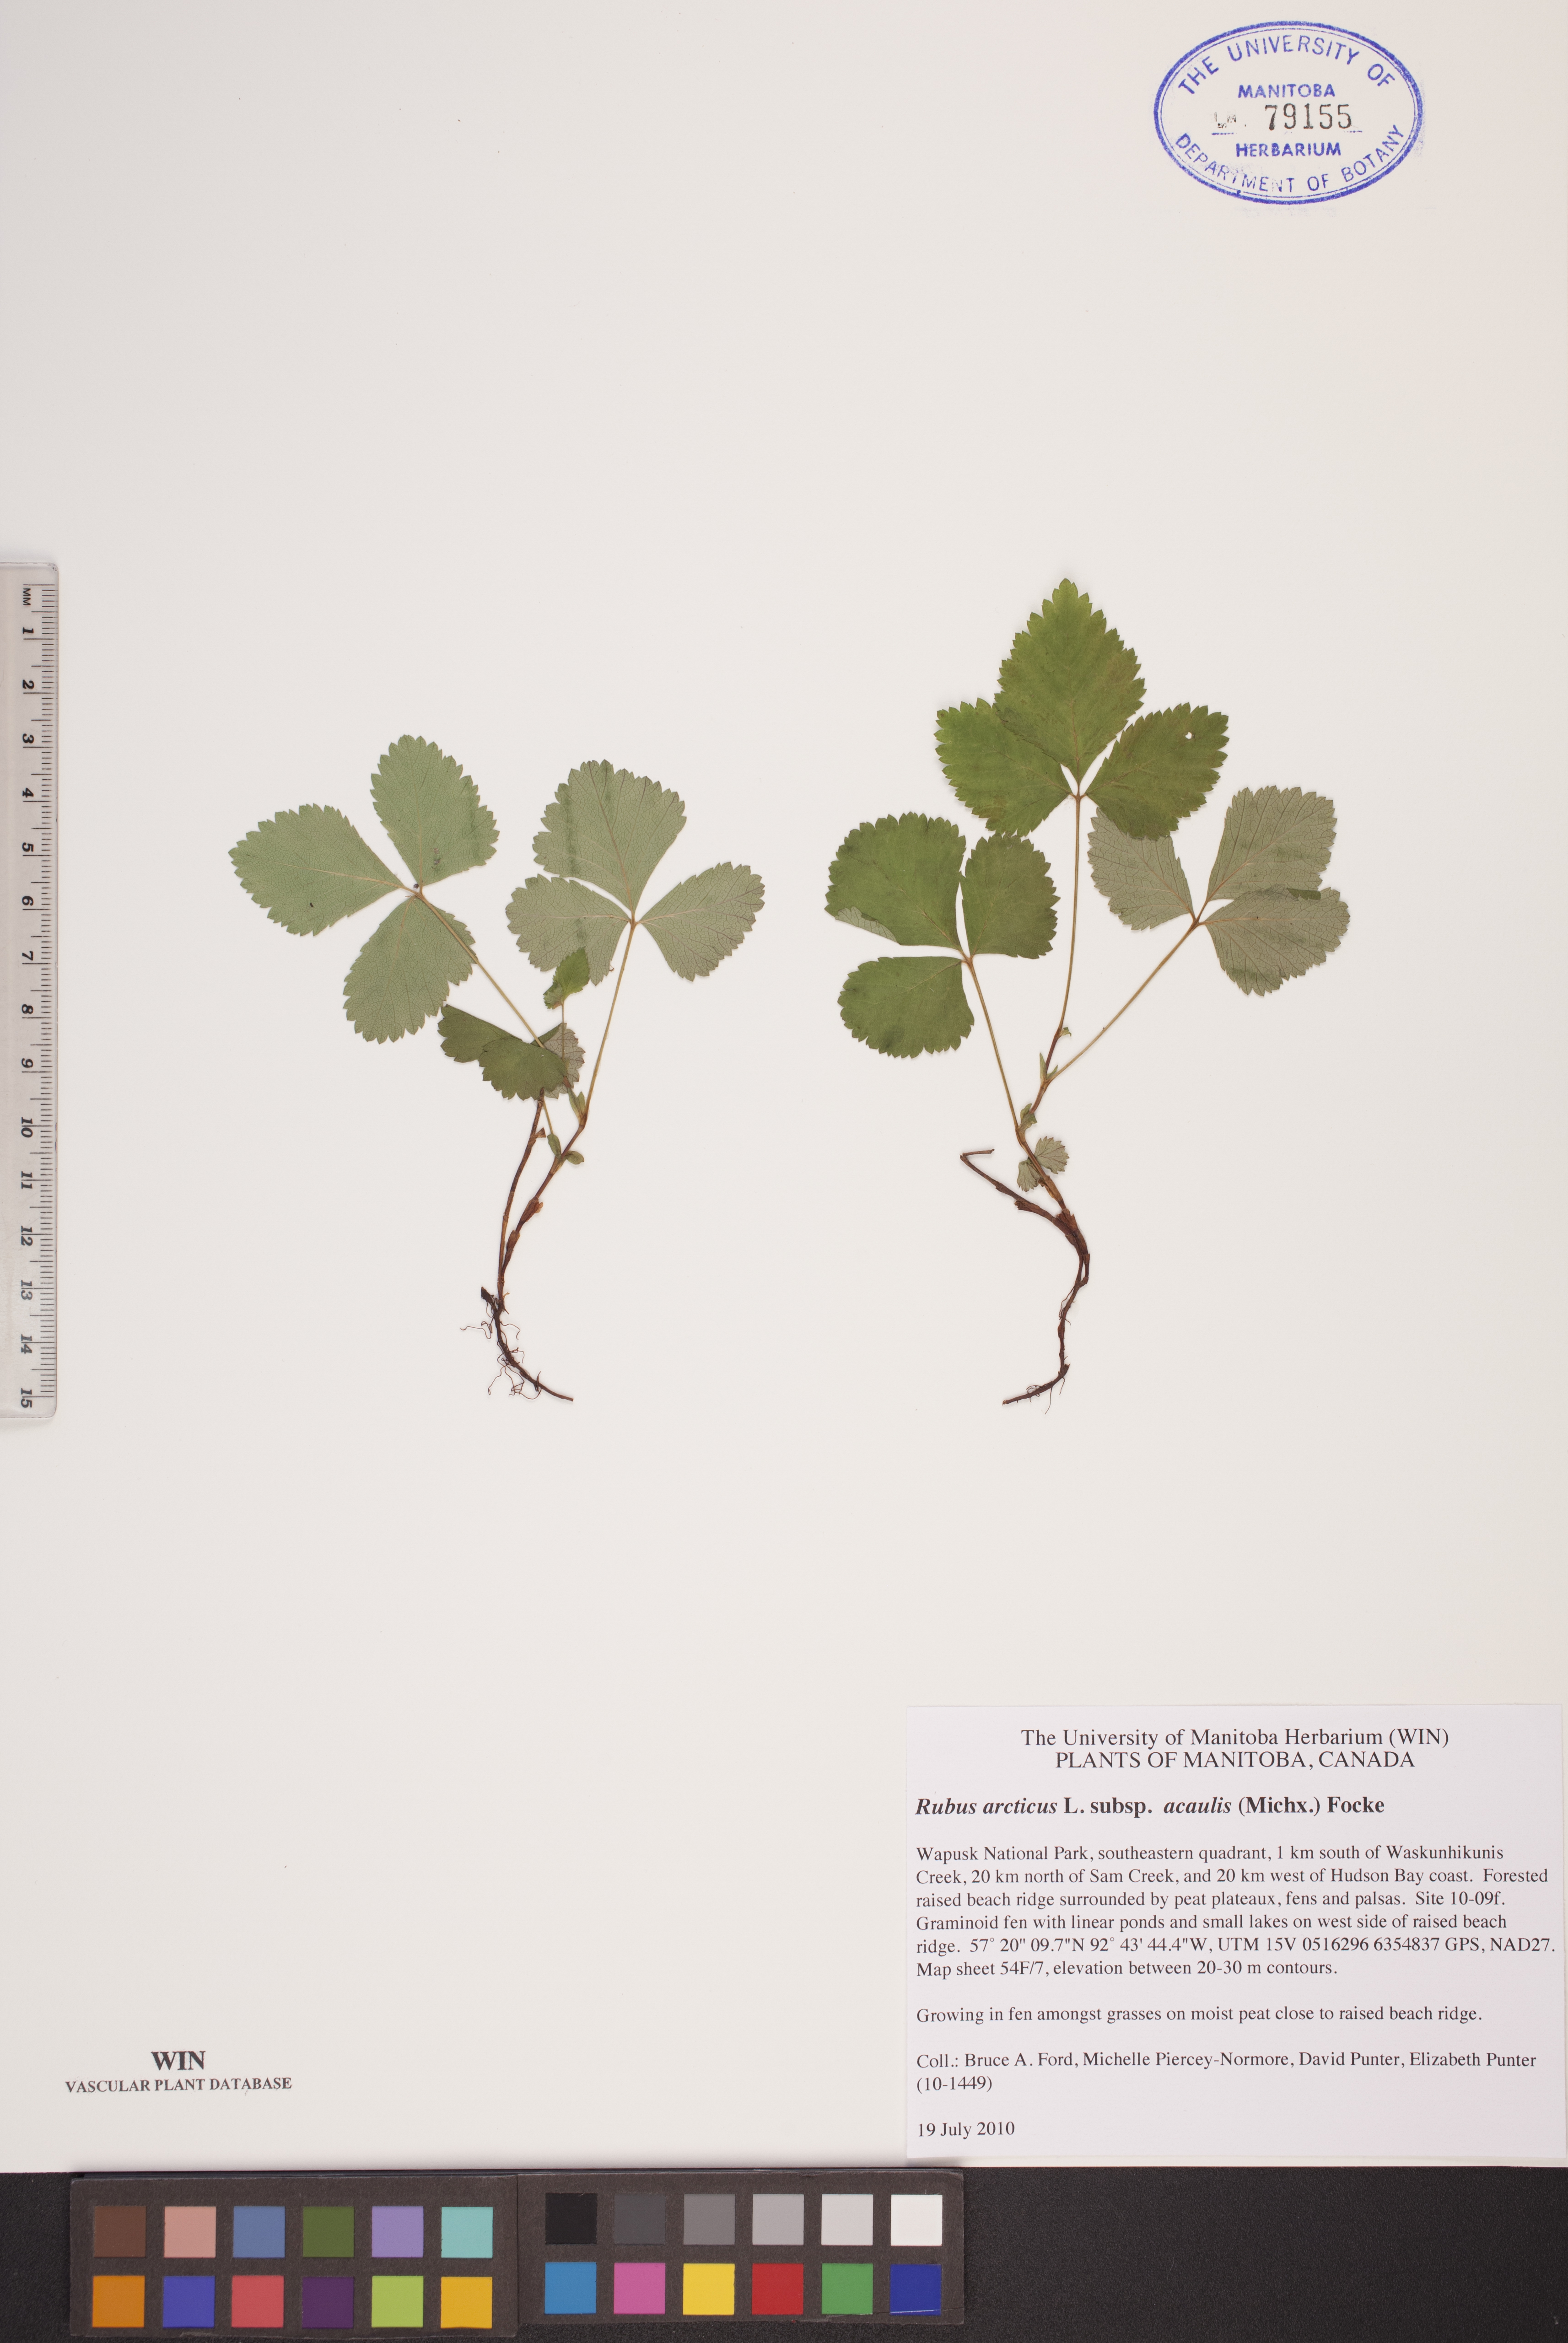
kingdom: Plantae
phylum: Tracheophyta
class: Magnoliopsida
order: Rosales
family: Rosaceae
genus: Rubus
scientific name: Rubus arcticus
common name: Arctic bramble
